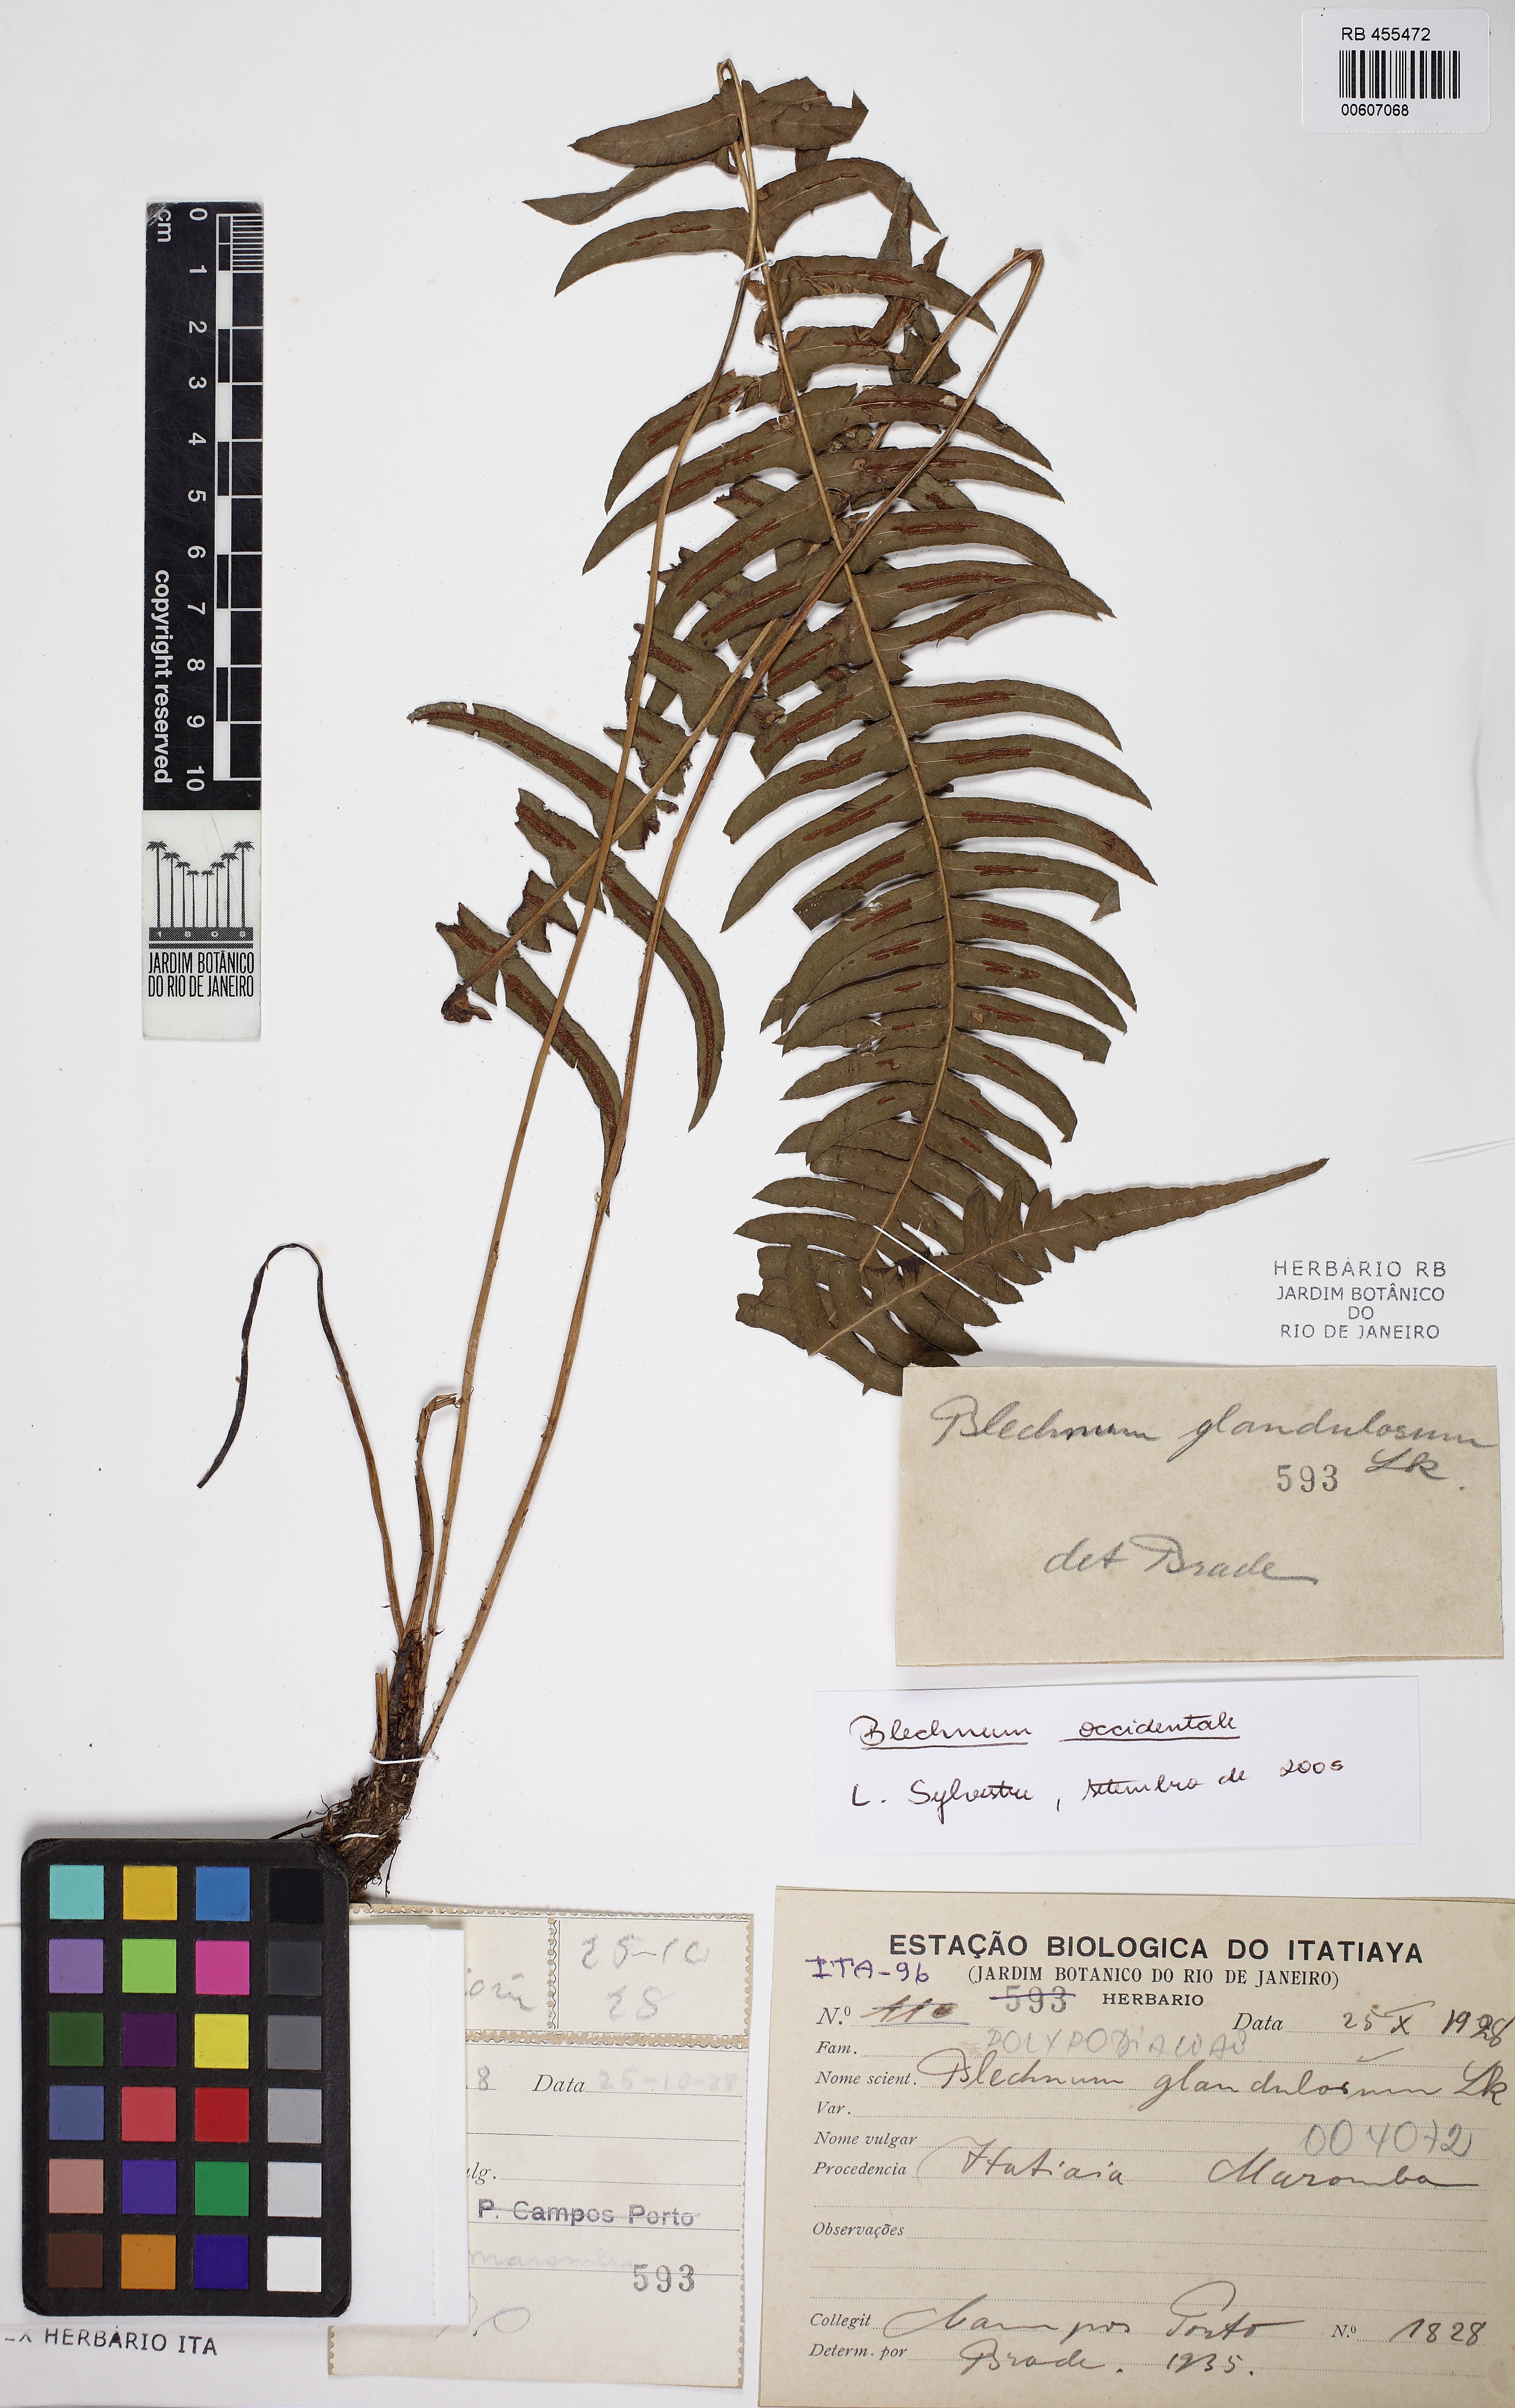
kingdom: Plantae
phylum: Tracheophyta
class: Polypodiopsida
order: Polypodiales
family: Blechnaceae
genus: Blechnum
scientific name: Blechnum occidentale
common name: Hammock fern
